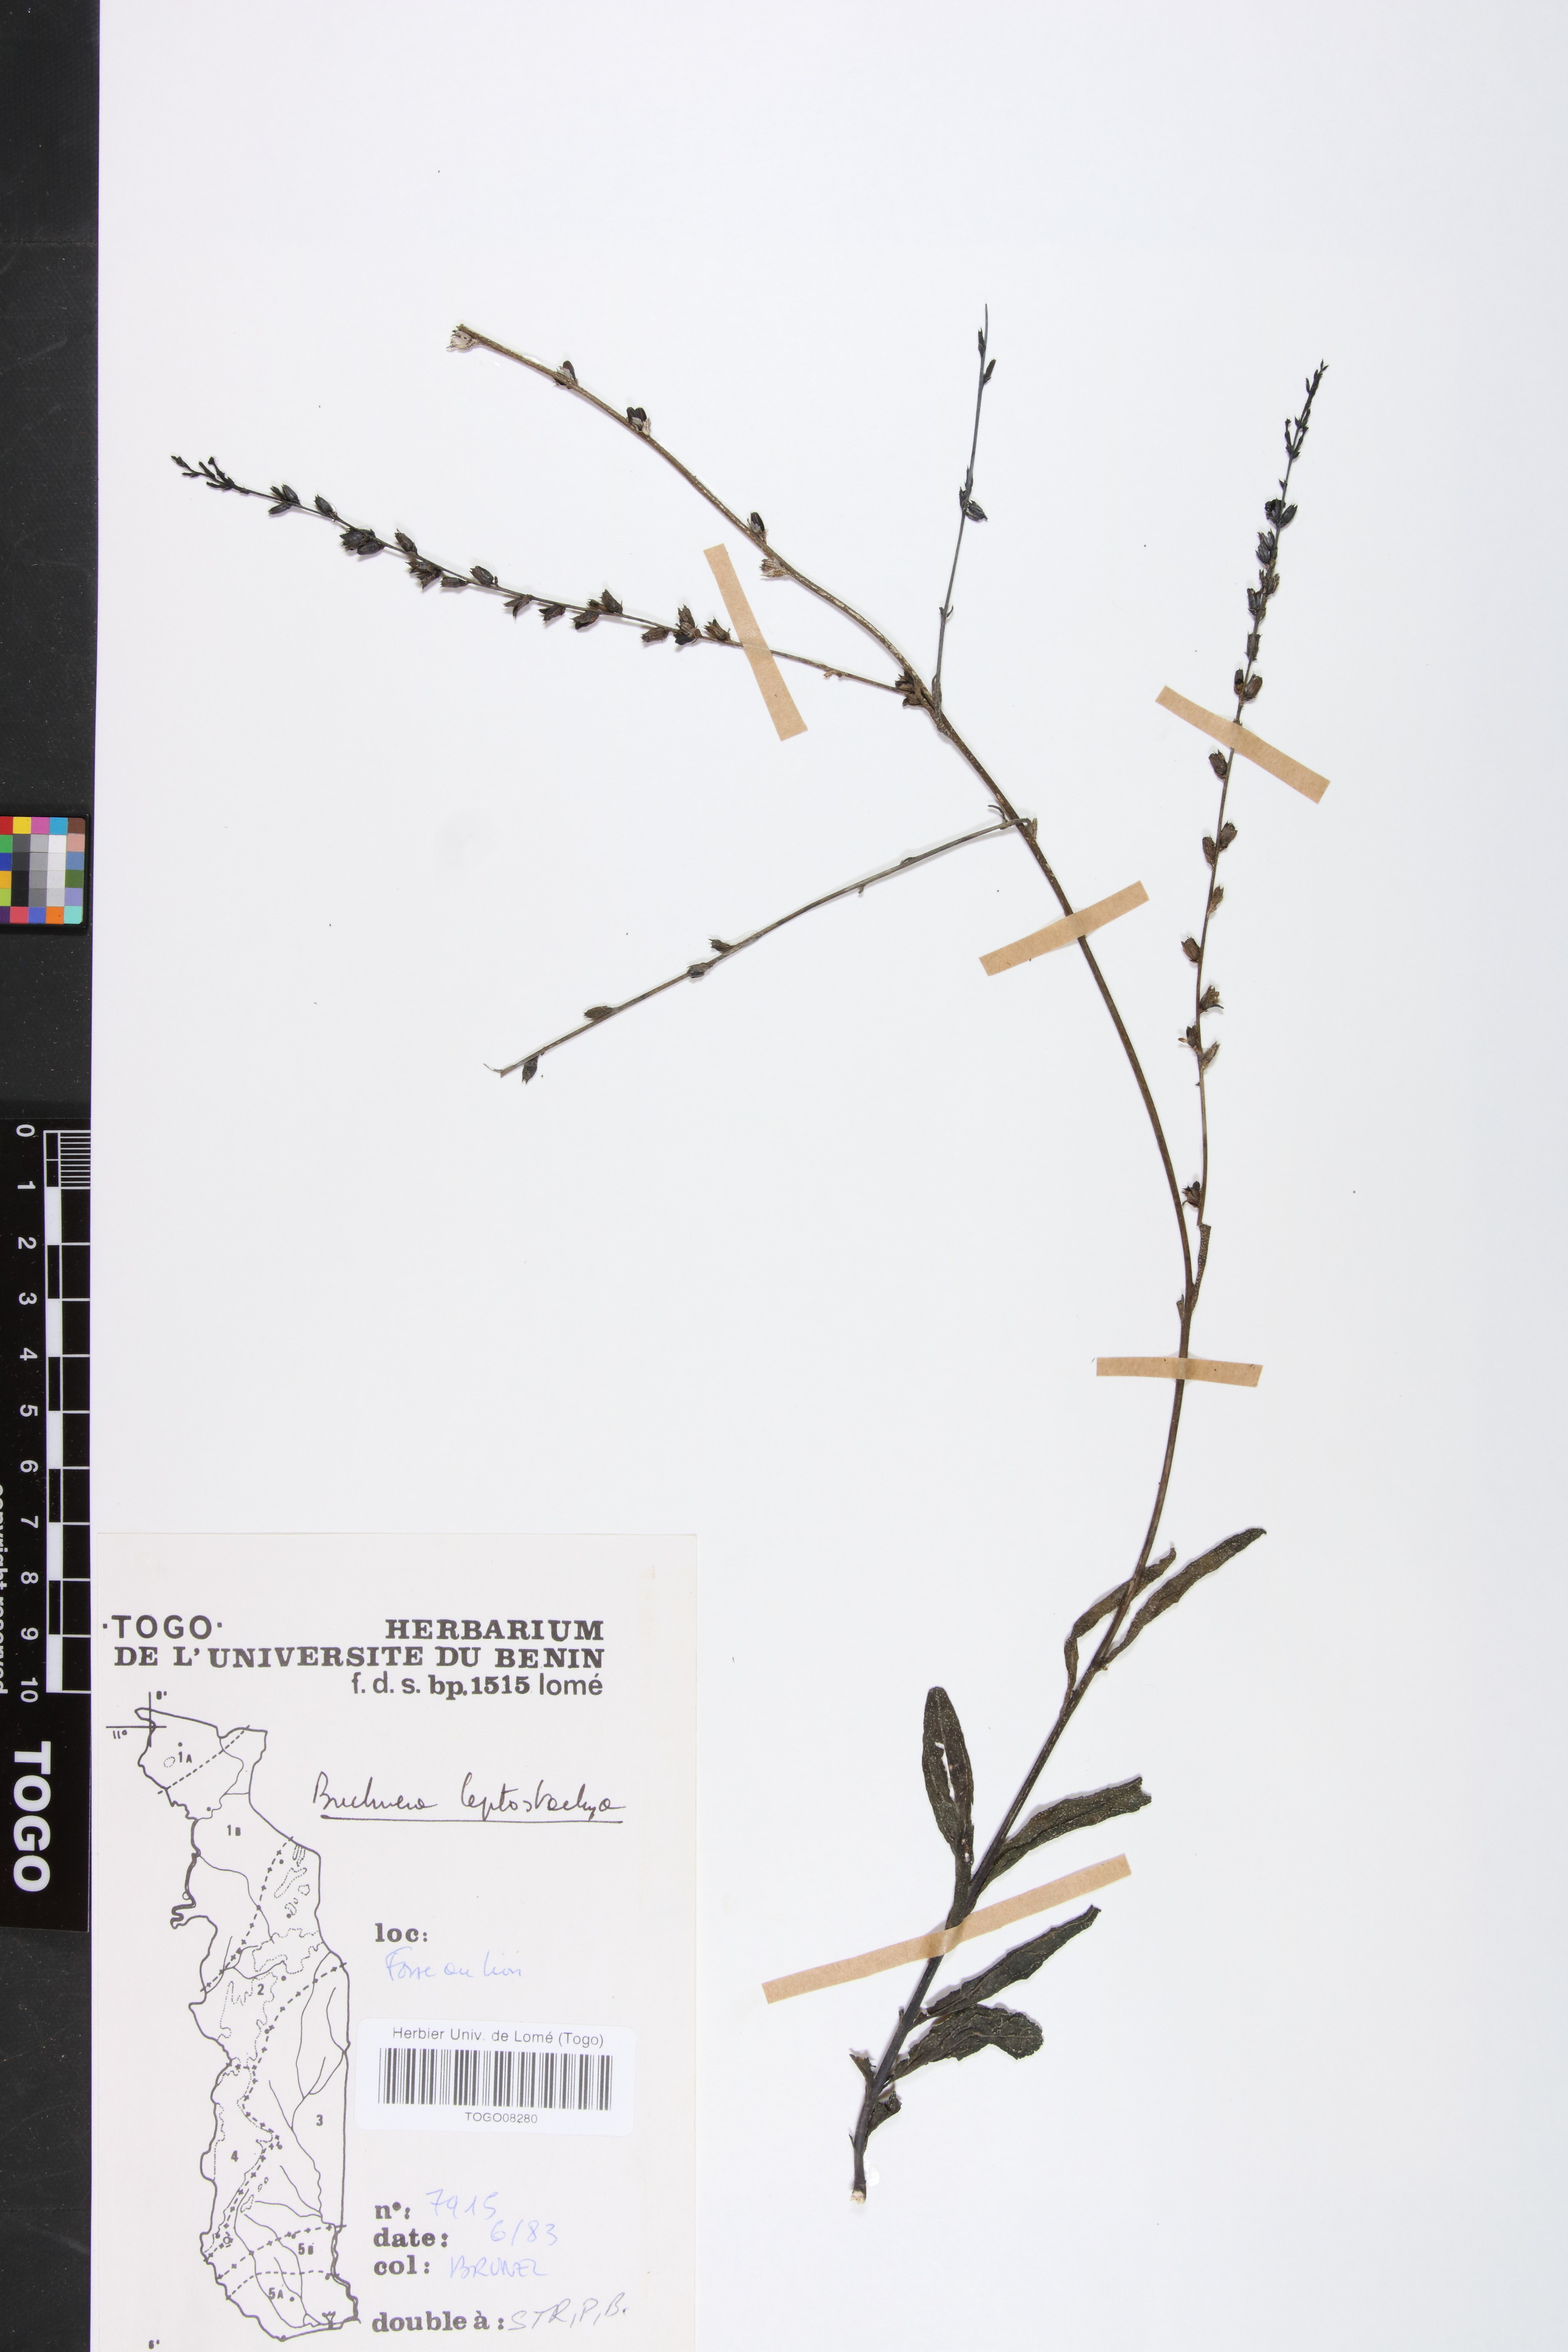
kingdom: Plantae
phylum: Tracheophyta
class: Magnoliopsida
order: Lamiales
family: Orobanchaceae
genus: Buchnera
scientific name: Buchnera leptostachya
